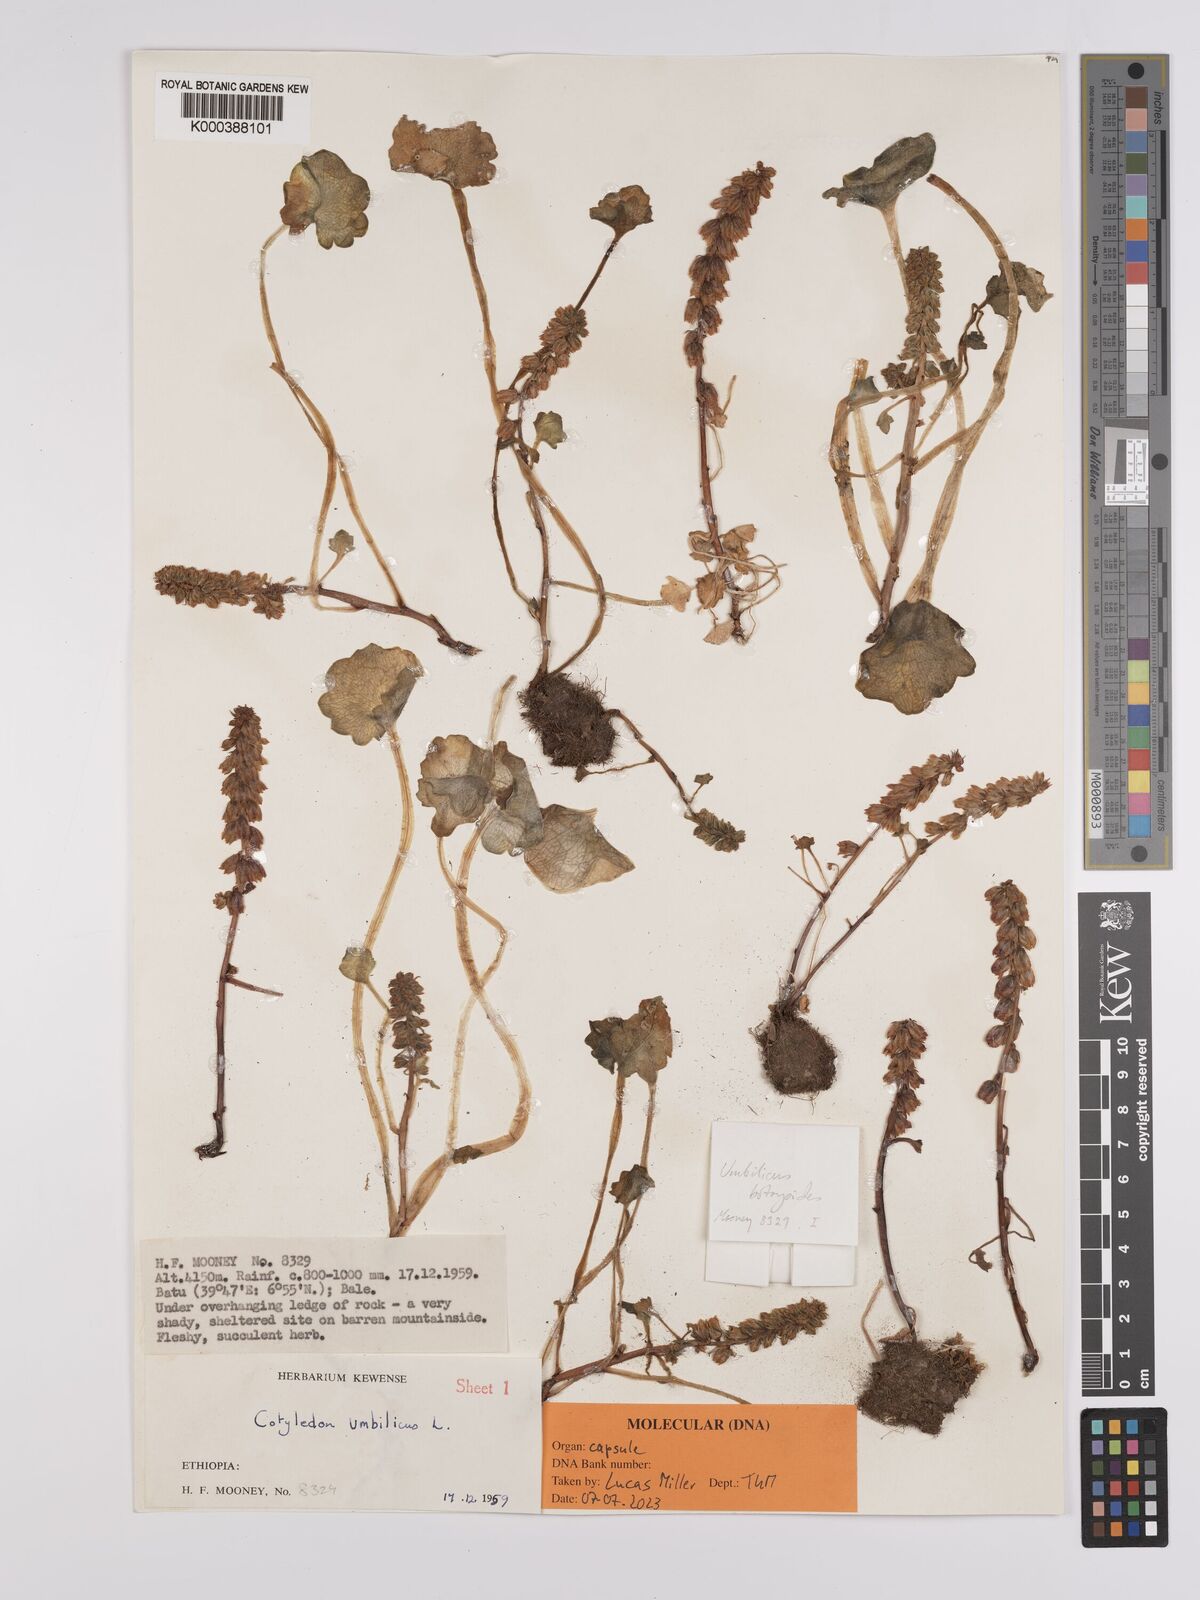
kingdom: Plantae
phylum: Tracheophyta
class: Magnoliopsida
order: Saxifragales
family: Crassulaceae
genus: Umbilicus
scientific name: Umbilicus botryoides
